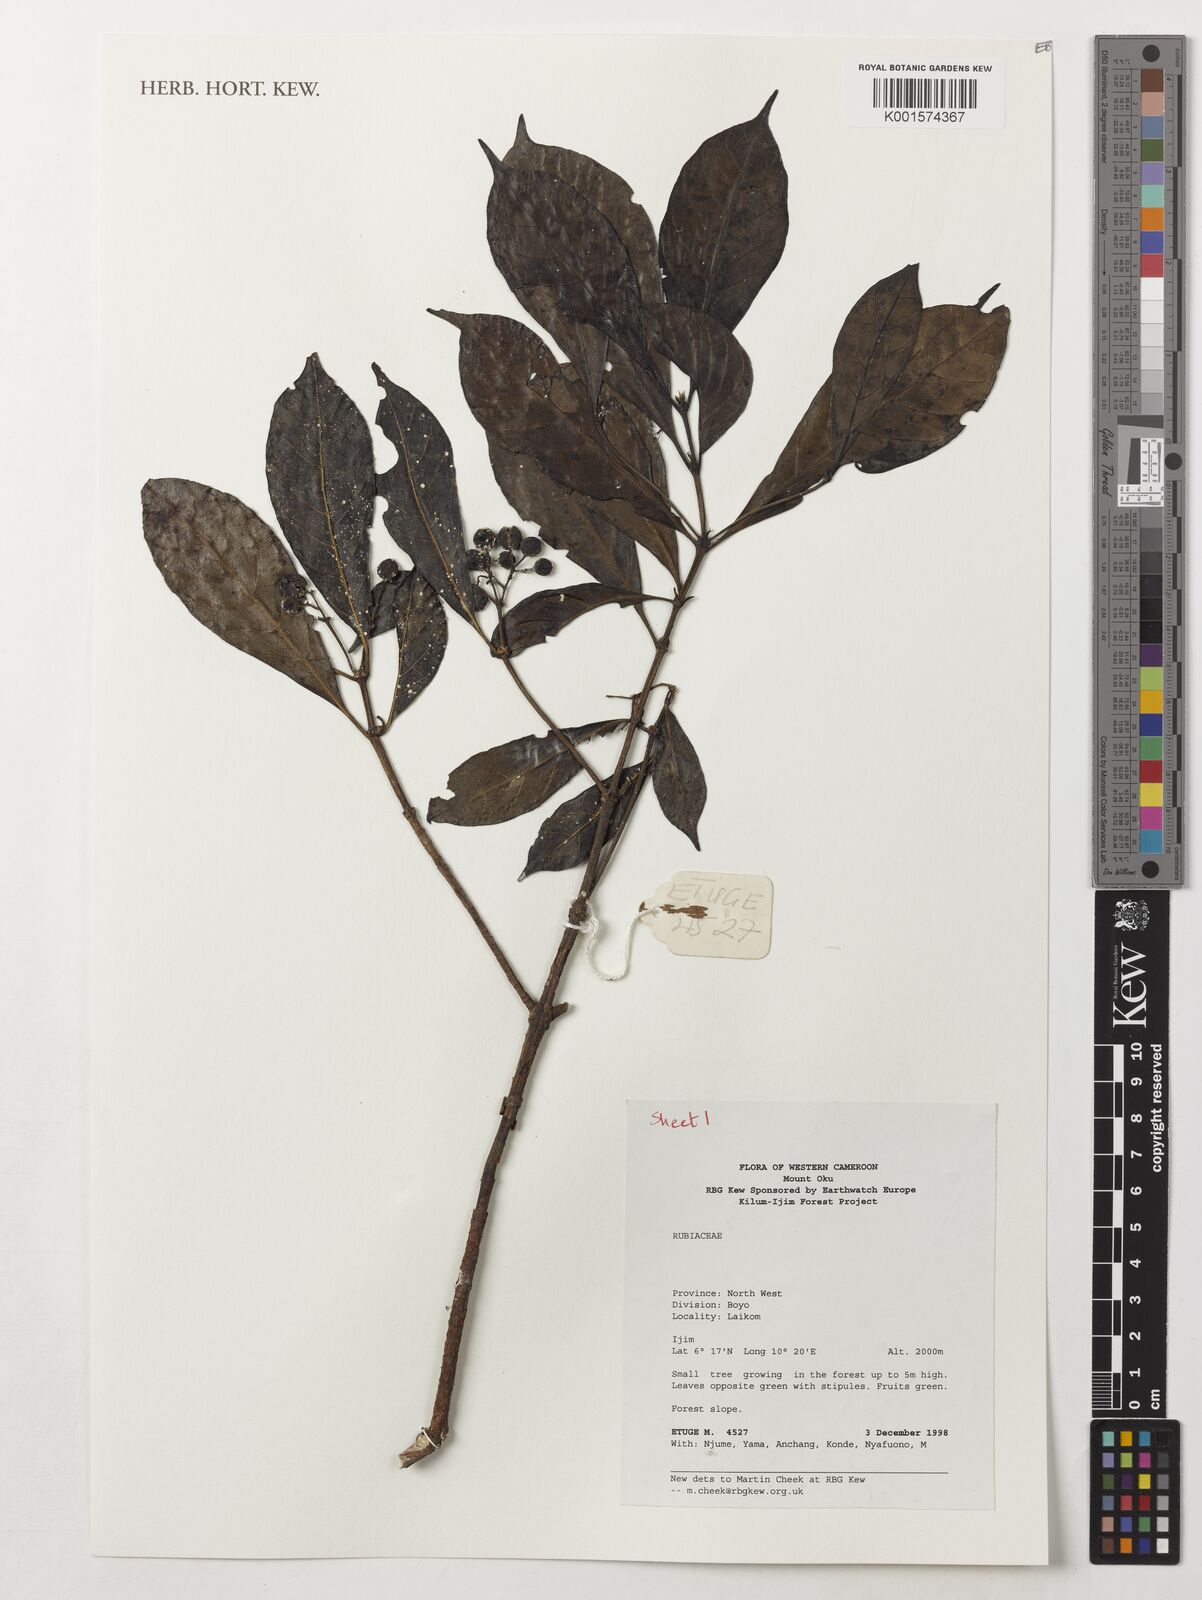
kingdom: Plantae
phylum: Tracheophyta
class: Magnoliopsida
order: Gentianales
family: Rubiaceae
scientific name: Rubiaceae
